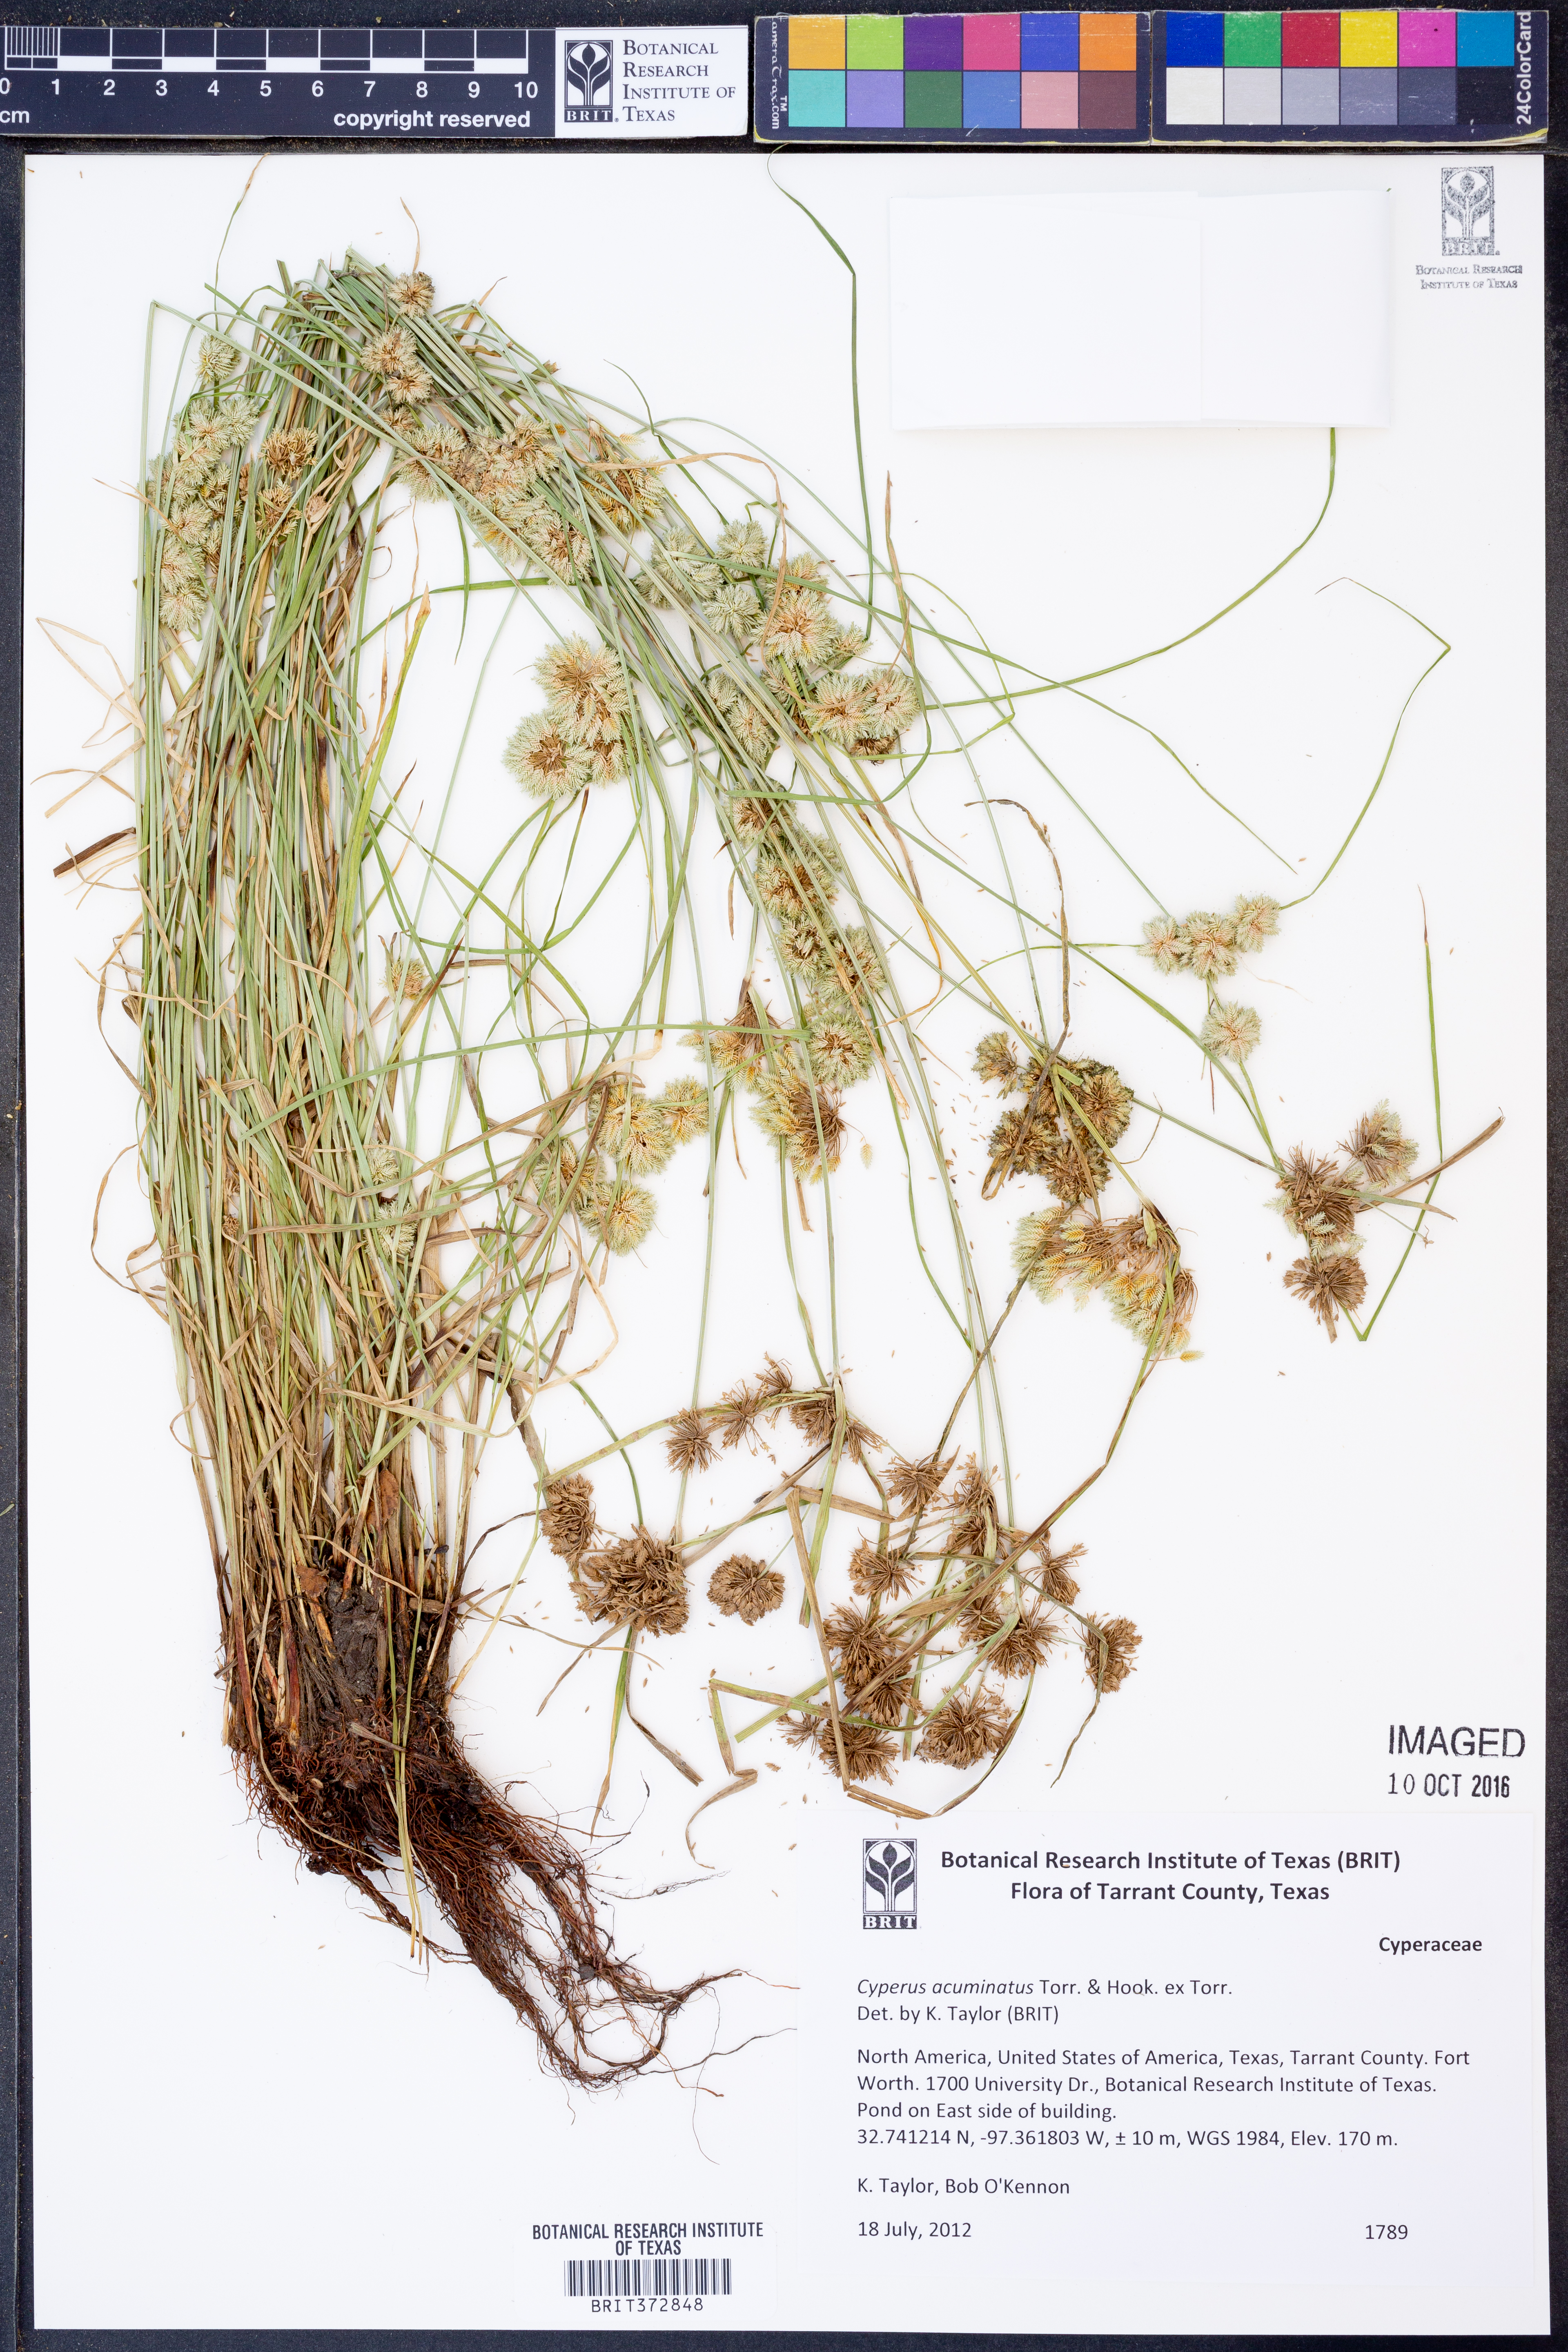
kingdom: Plantae
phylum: Tracheophyta
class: Liliopsida
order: Poales
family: Cyperaceae
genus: Cyperus
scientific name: Cyperus acuminatus
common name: Short-pointed cyperus
